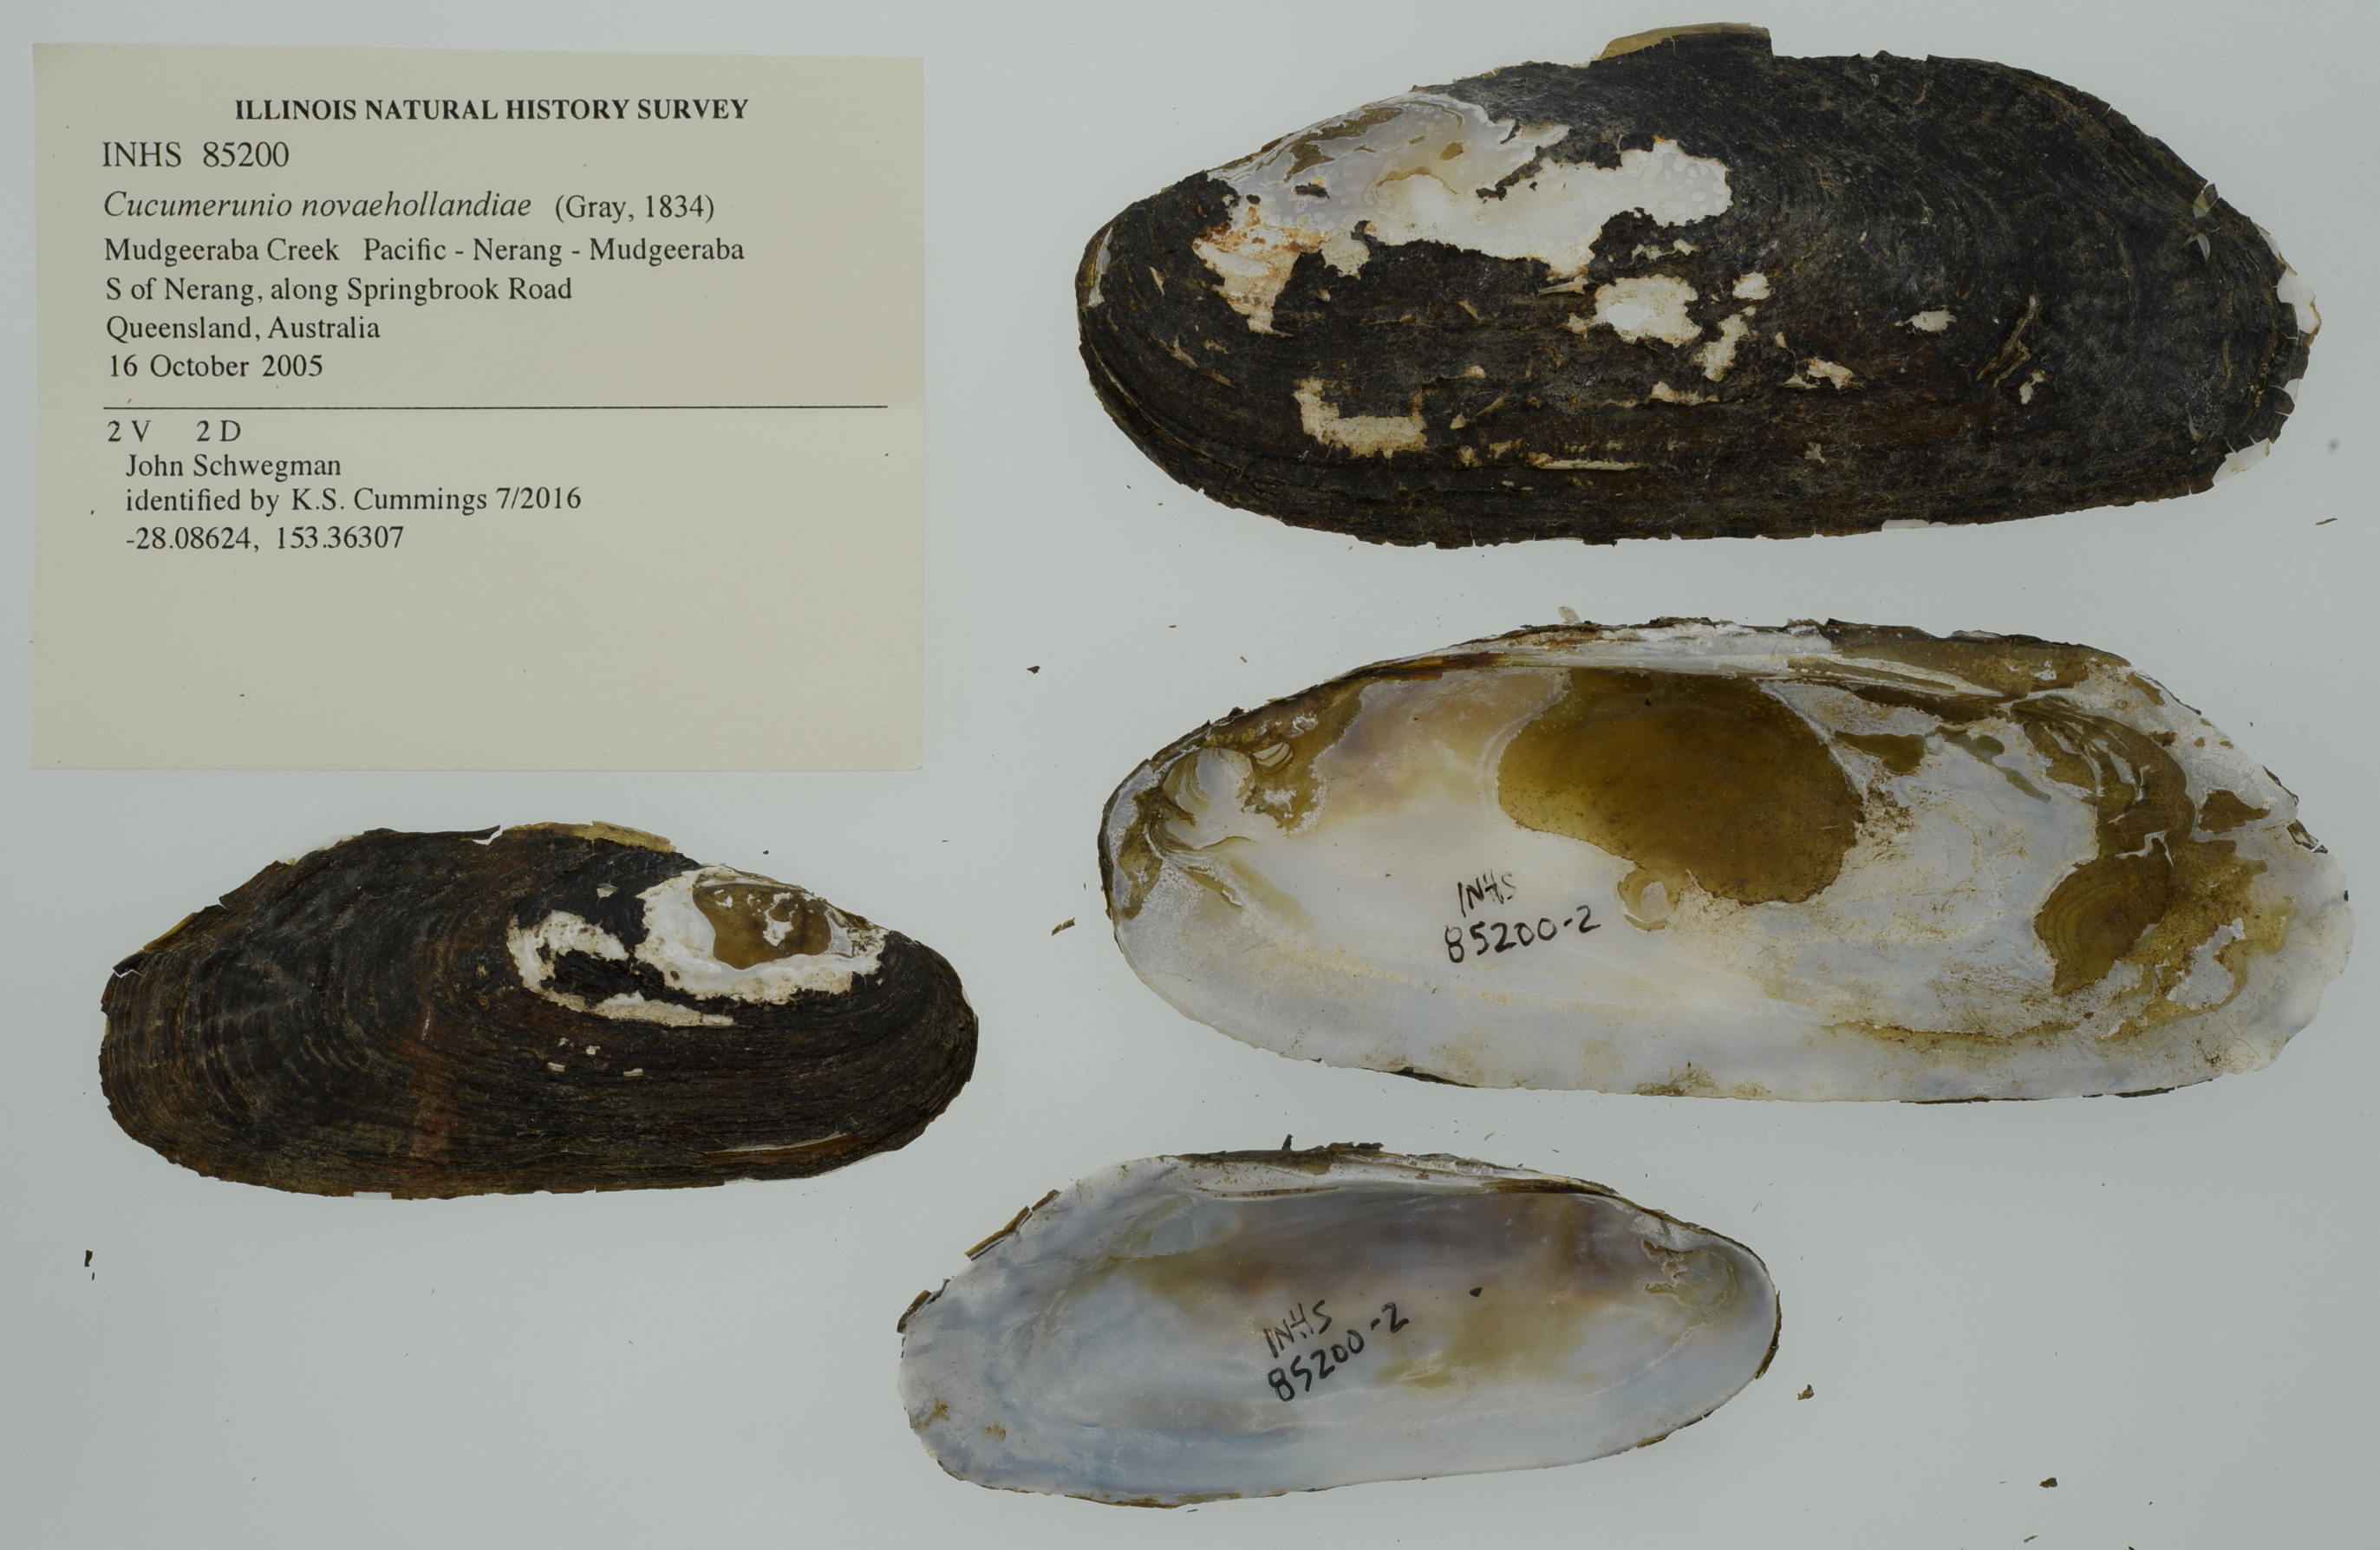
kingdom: Animalia
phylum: Mollusca
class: Bivalvia
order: Unionida
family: Hyriidae
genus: Cucumerunio
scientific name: Cucumerunio novaehollandiae
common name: Australian river mussel
